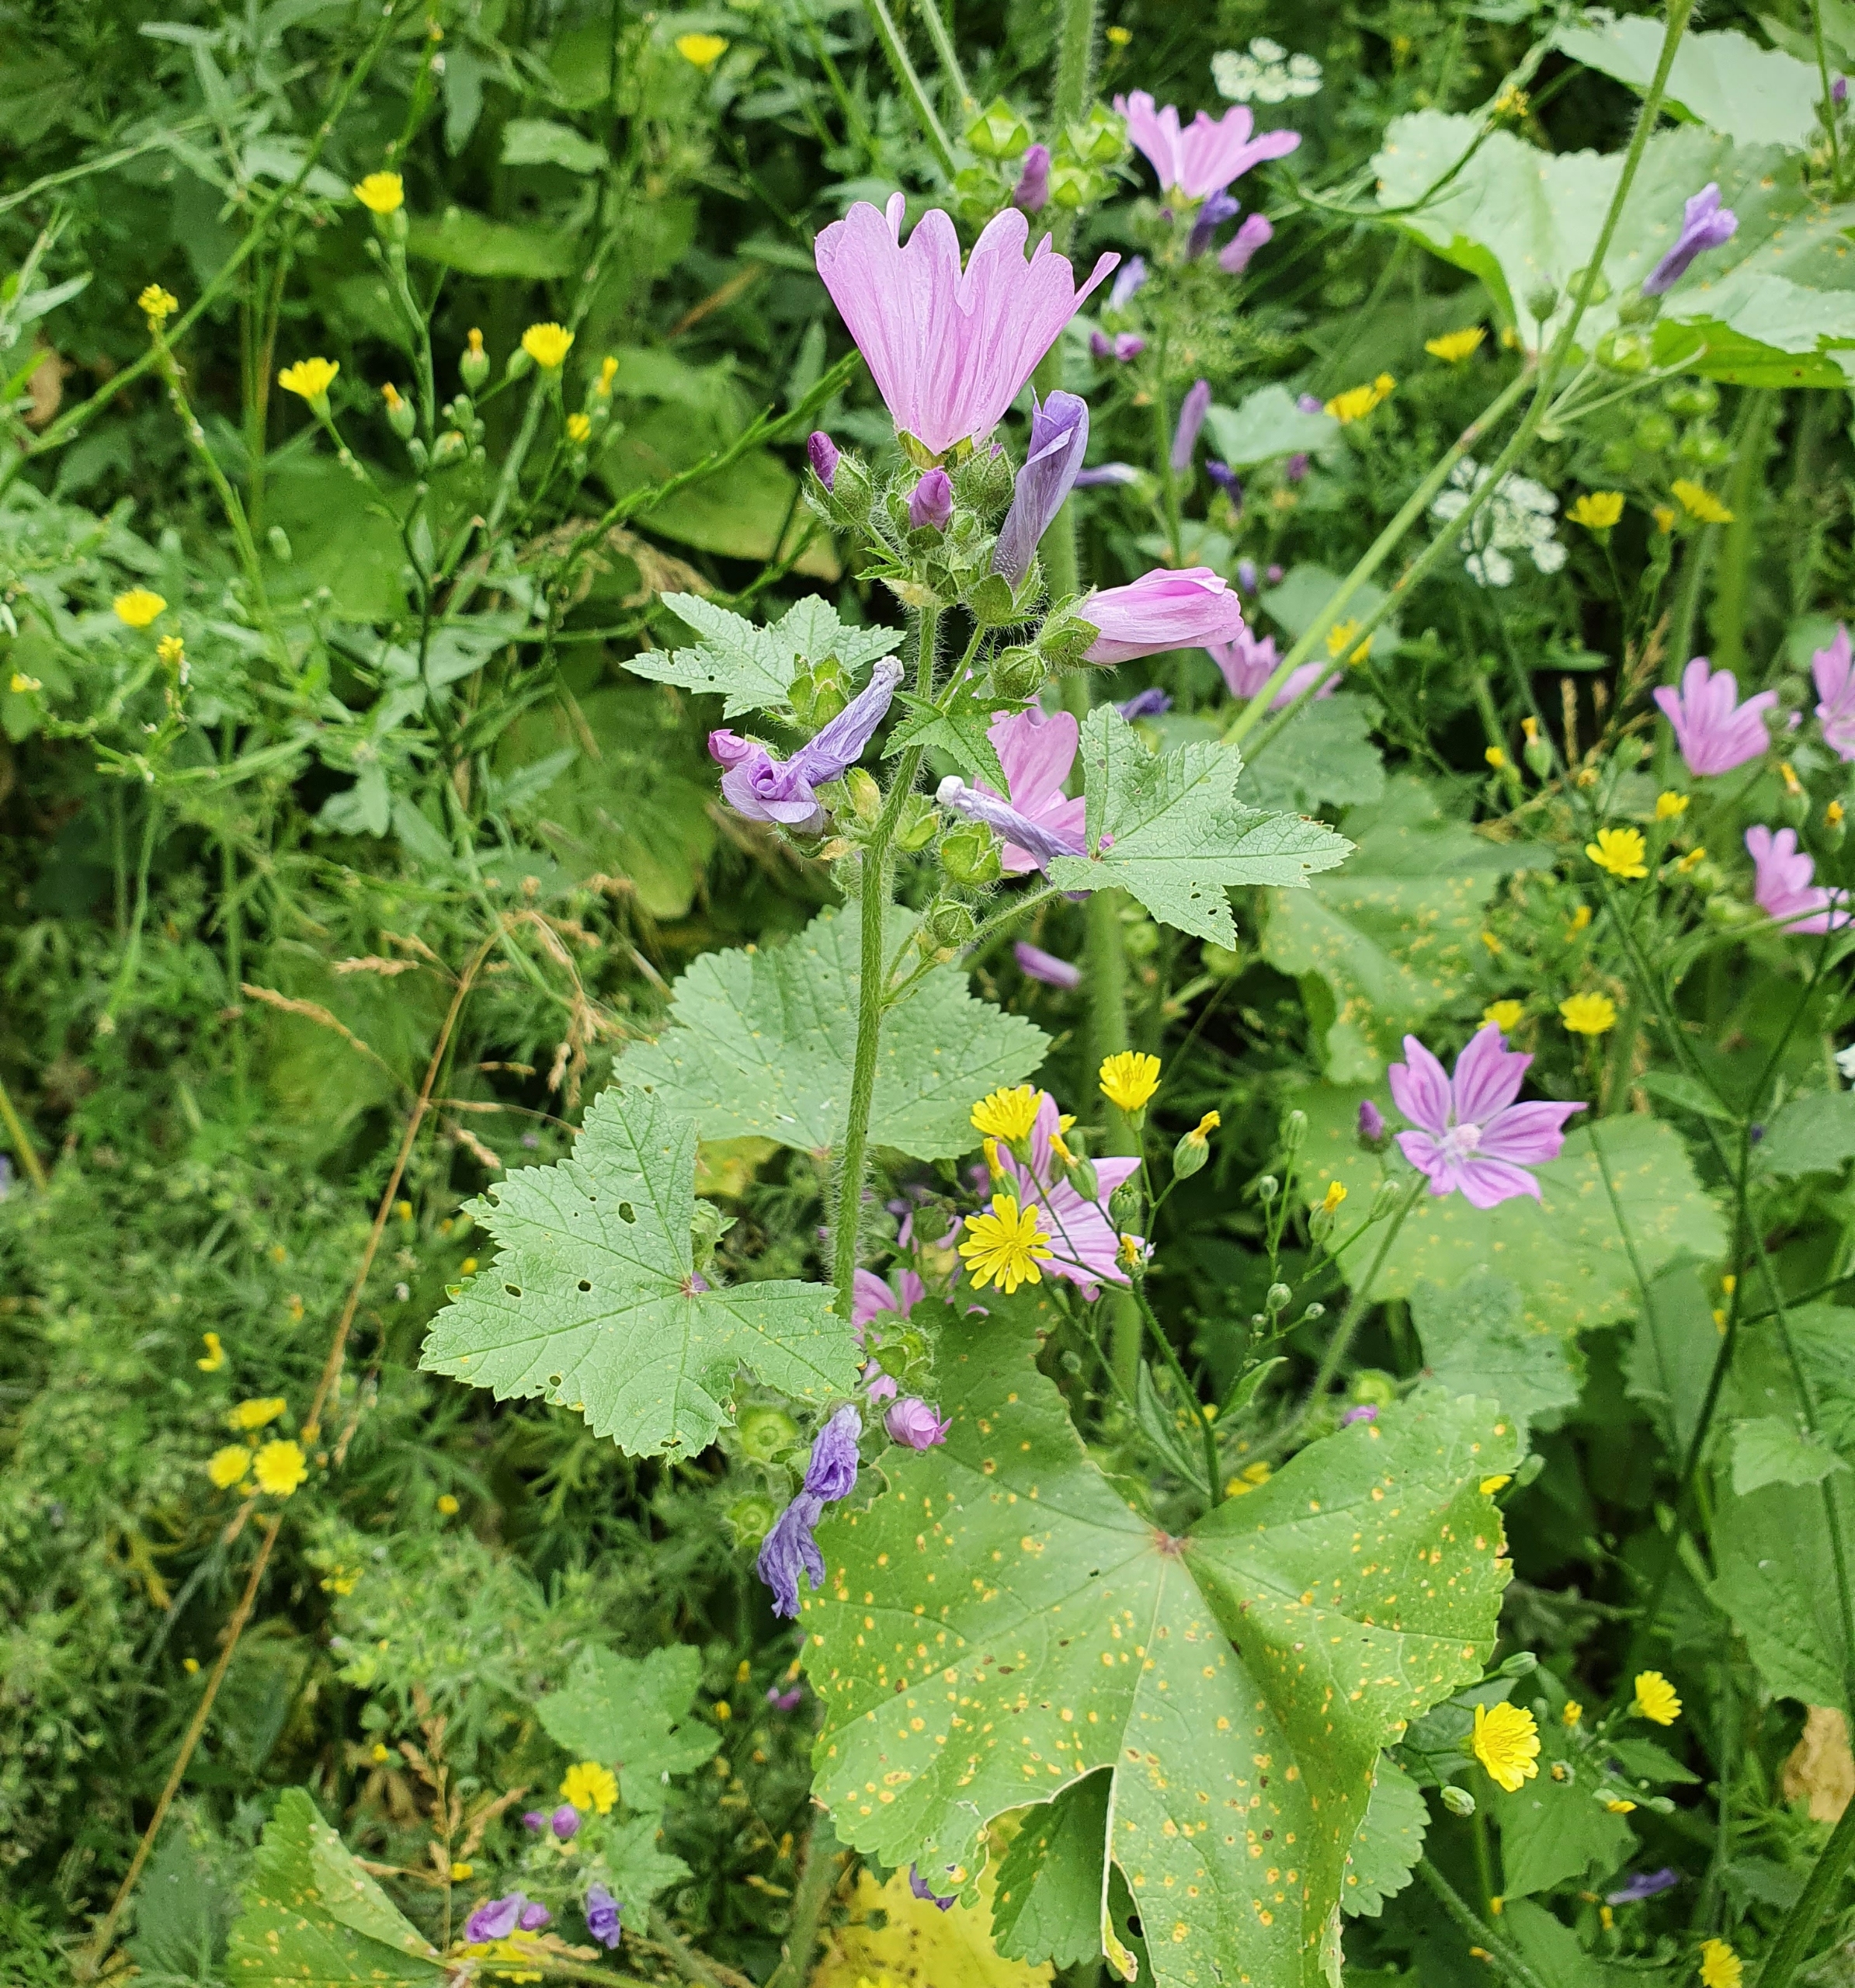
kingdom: Plantae
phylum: Tracheophyta
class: Magnoliopsida
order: Malvales
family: Malvaceae
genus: Malva
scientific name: Malva sylvestris
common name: Almindelig katost
